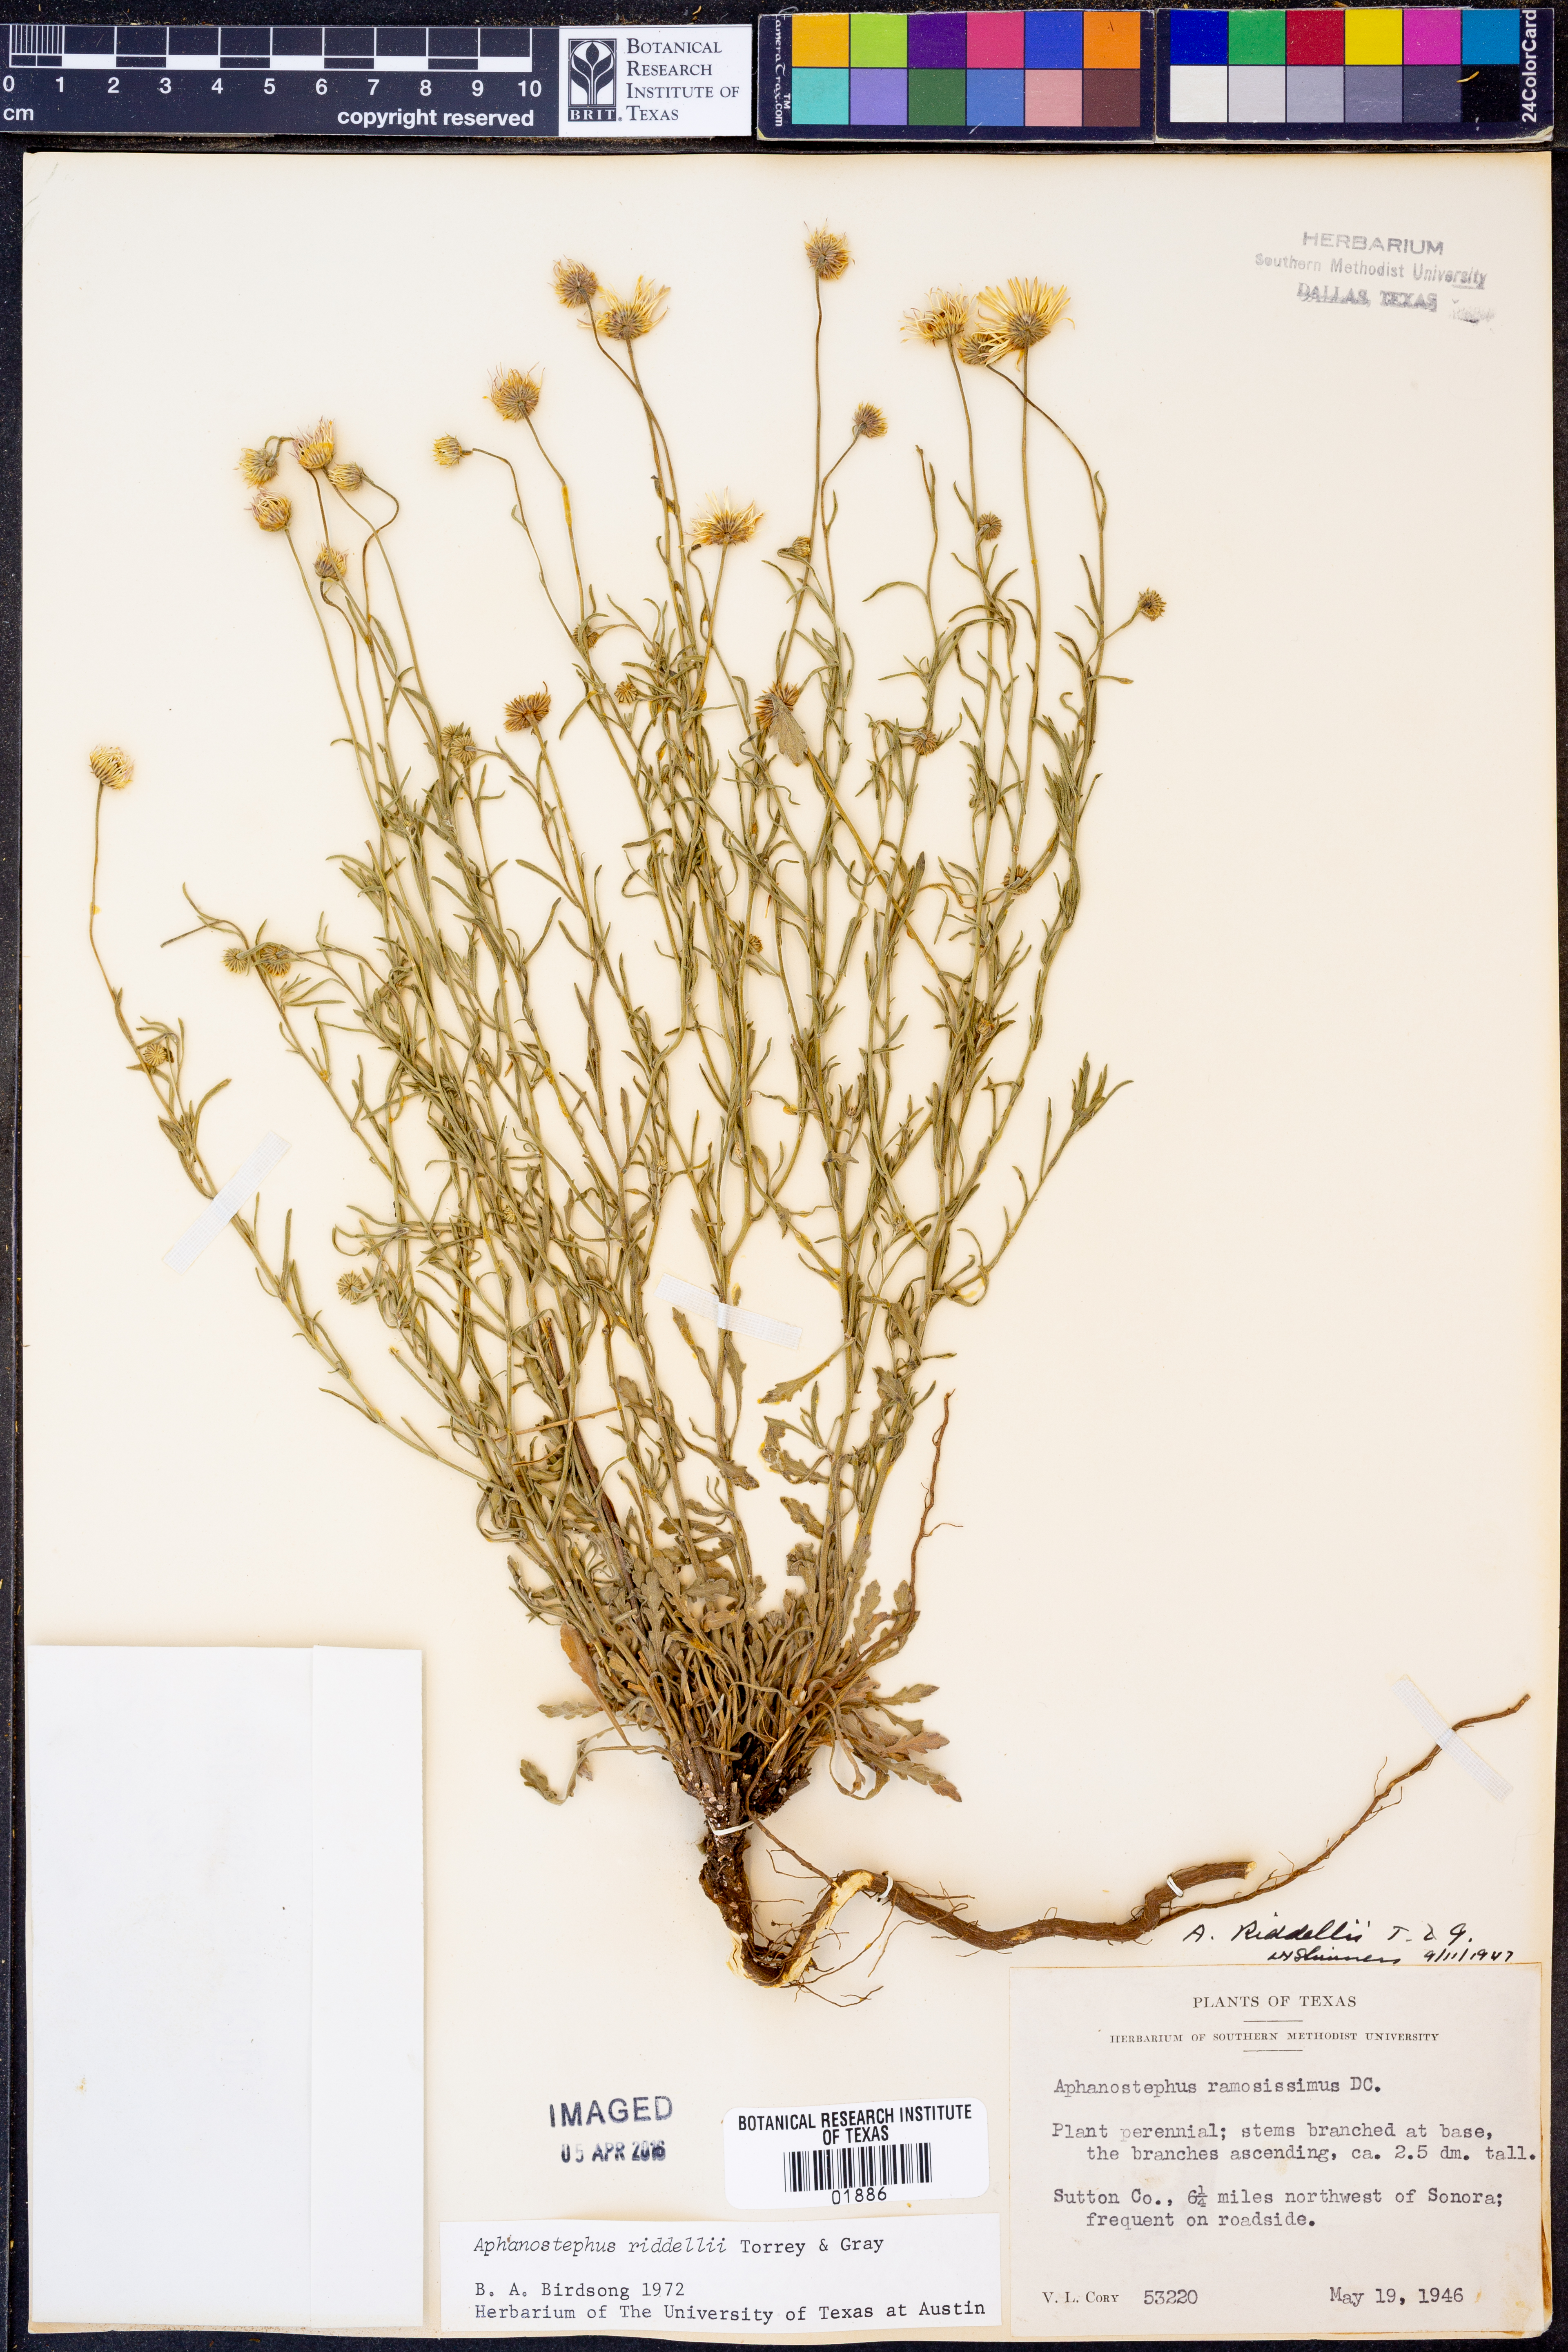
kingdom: Plantae
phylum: Tracheophyta
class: Magnoliopsida
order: Asterales
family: Asteraceae
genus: Aphanostephus
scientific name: Aphanostephus riddellii
